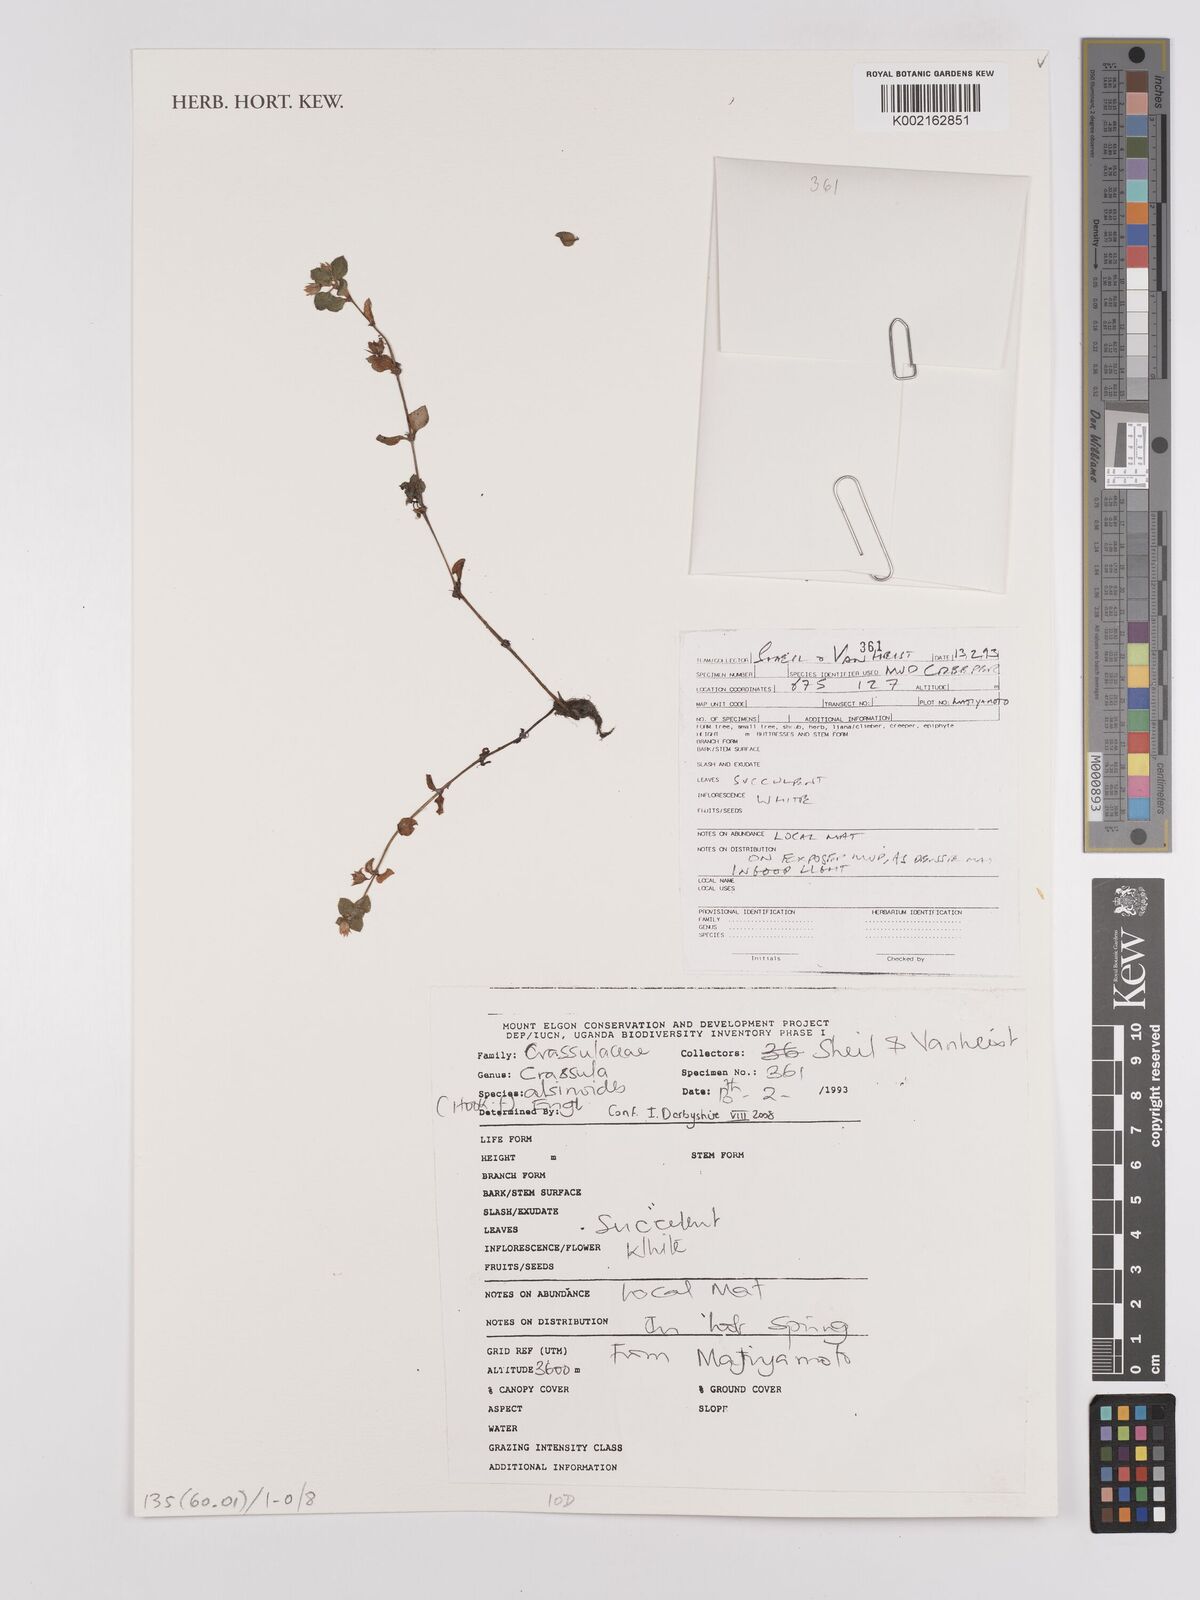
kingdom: Plantae
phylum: Tracheophyta
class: Magnoliopsida
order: Saxifragales
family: Crassulaceae
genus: Crassula
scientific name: Crassula alsinoides
